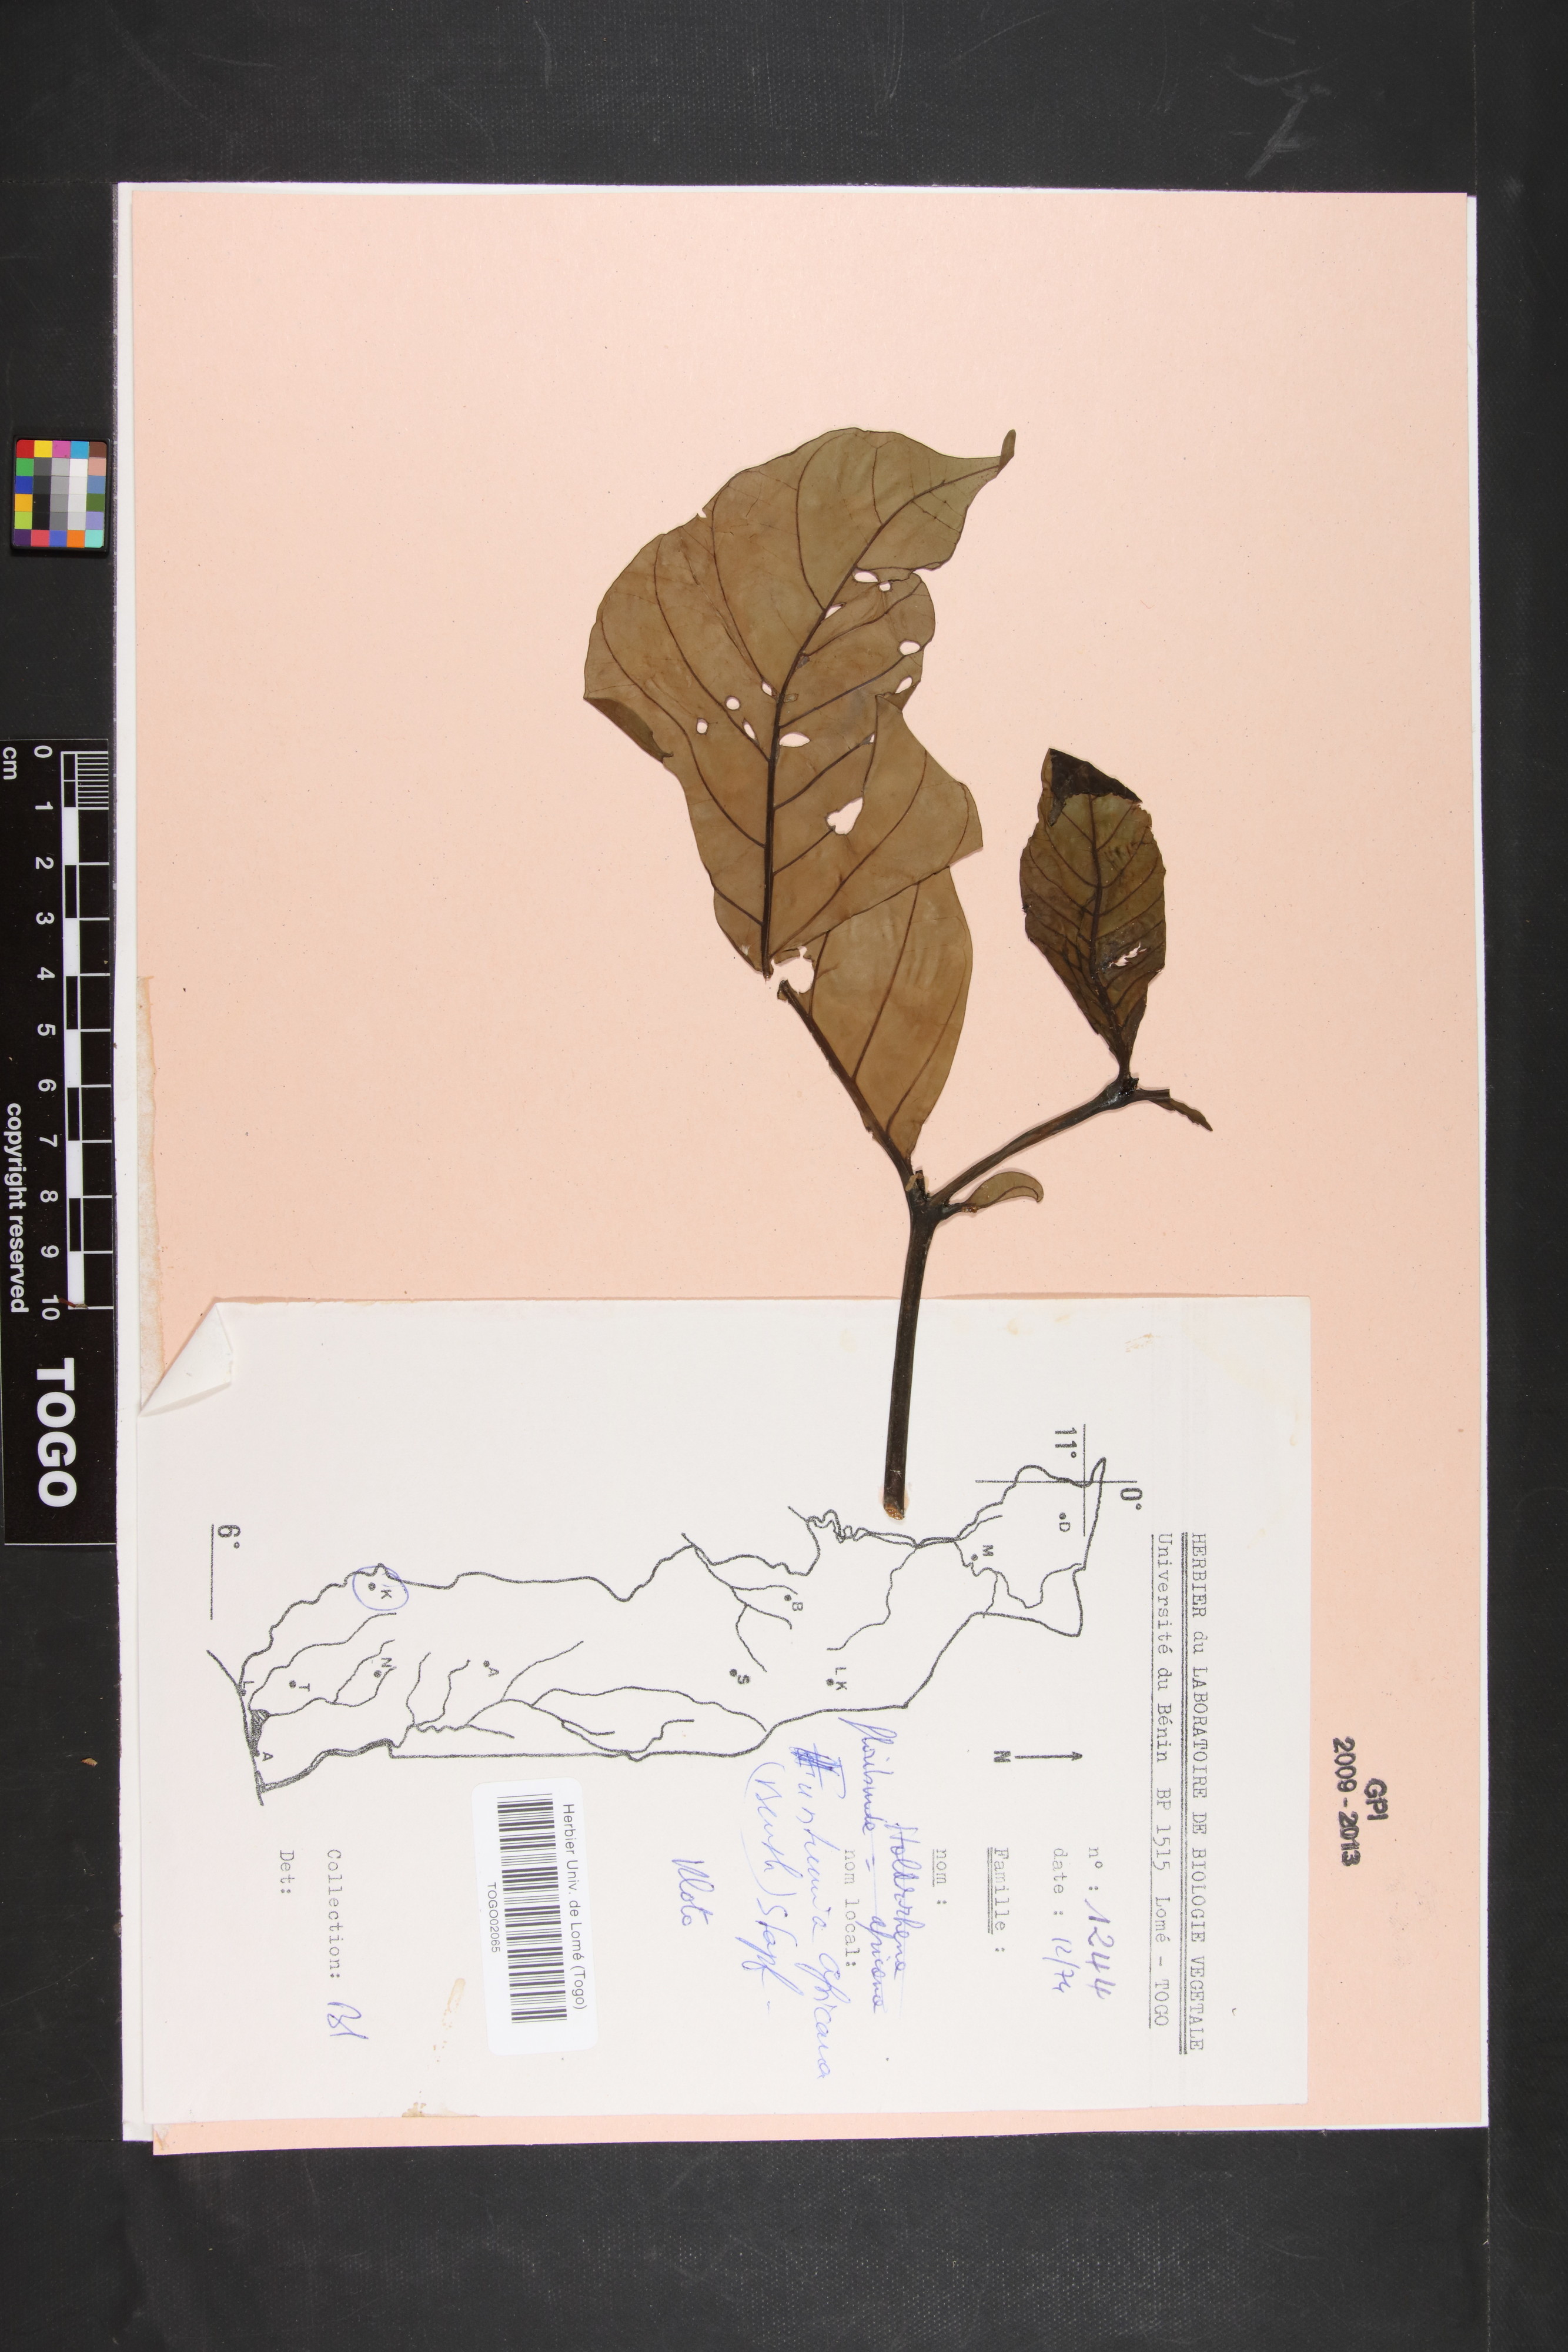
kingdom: Plantae
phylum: Tracheophyta
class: Magnoliopsida
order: Gentianales
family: Apocynaceae
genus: Funtumia
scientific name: Funtumia africana
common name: Lagos-rubber
